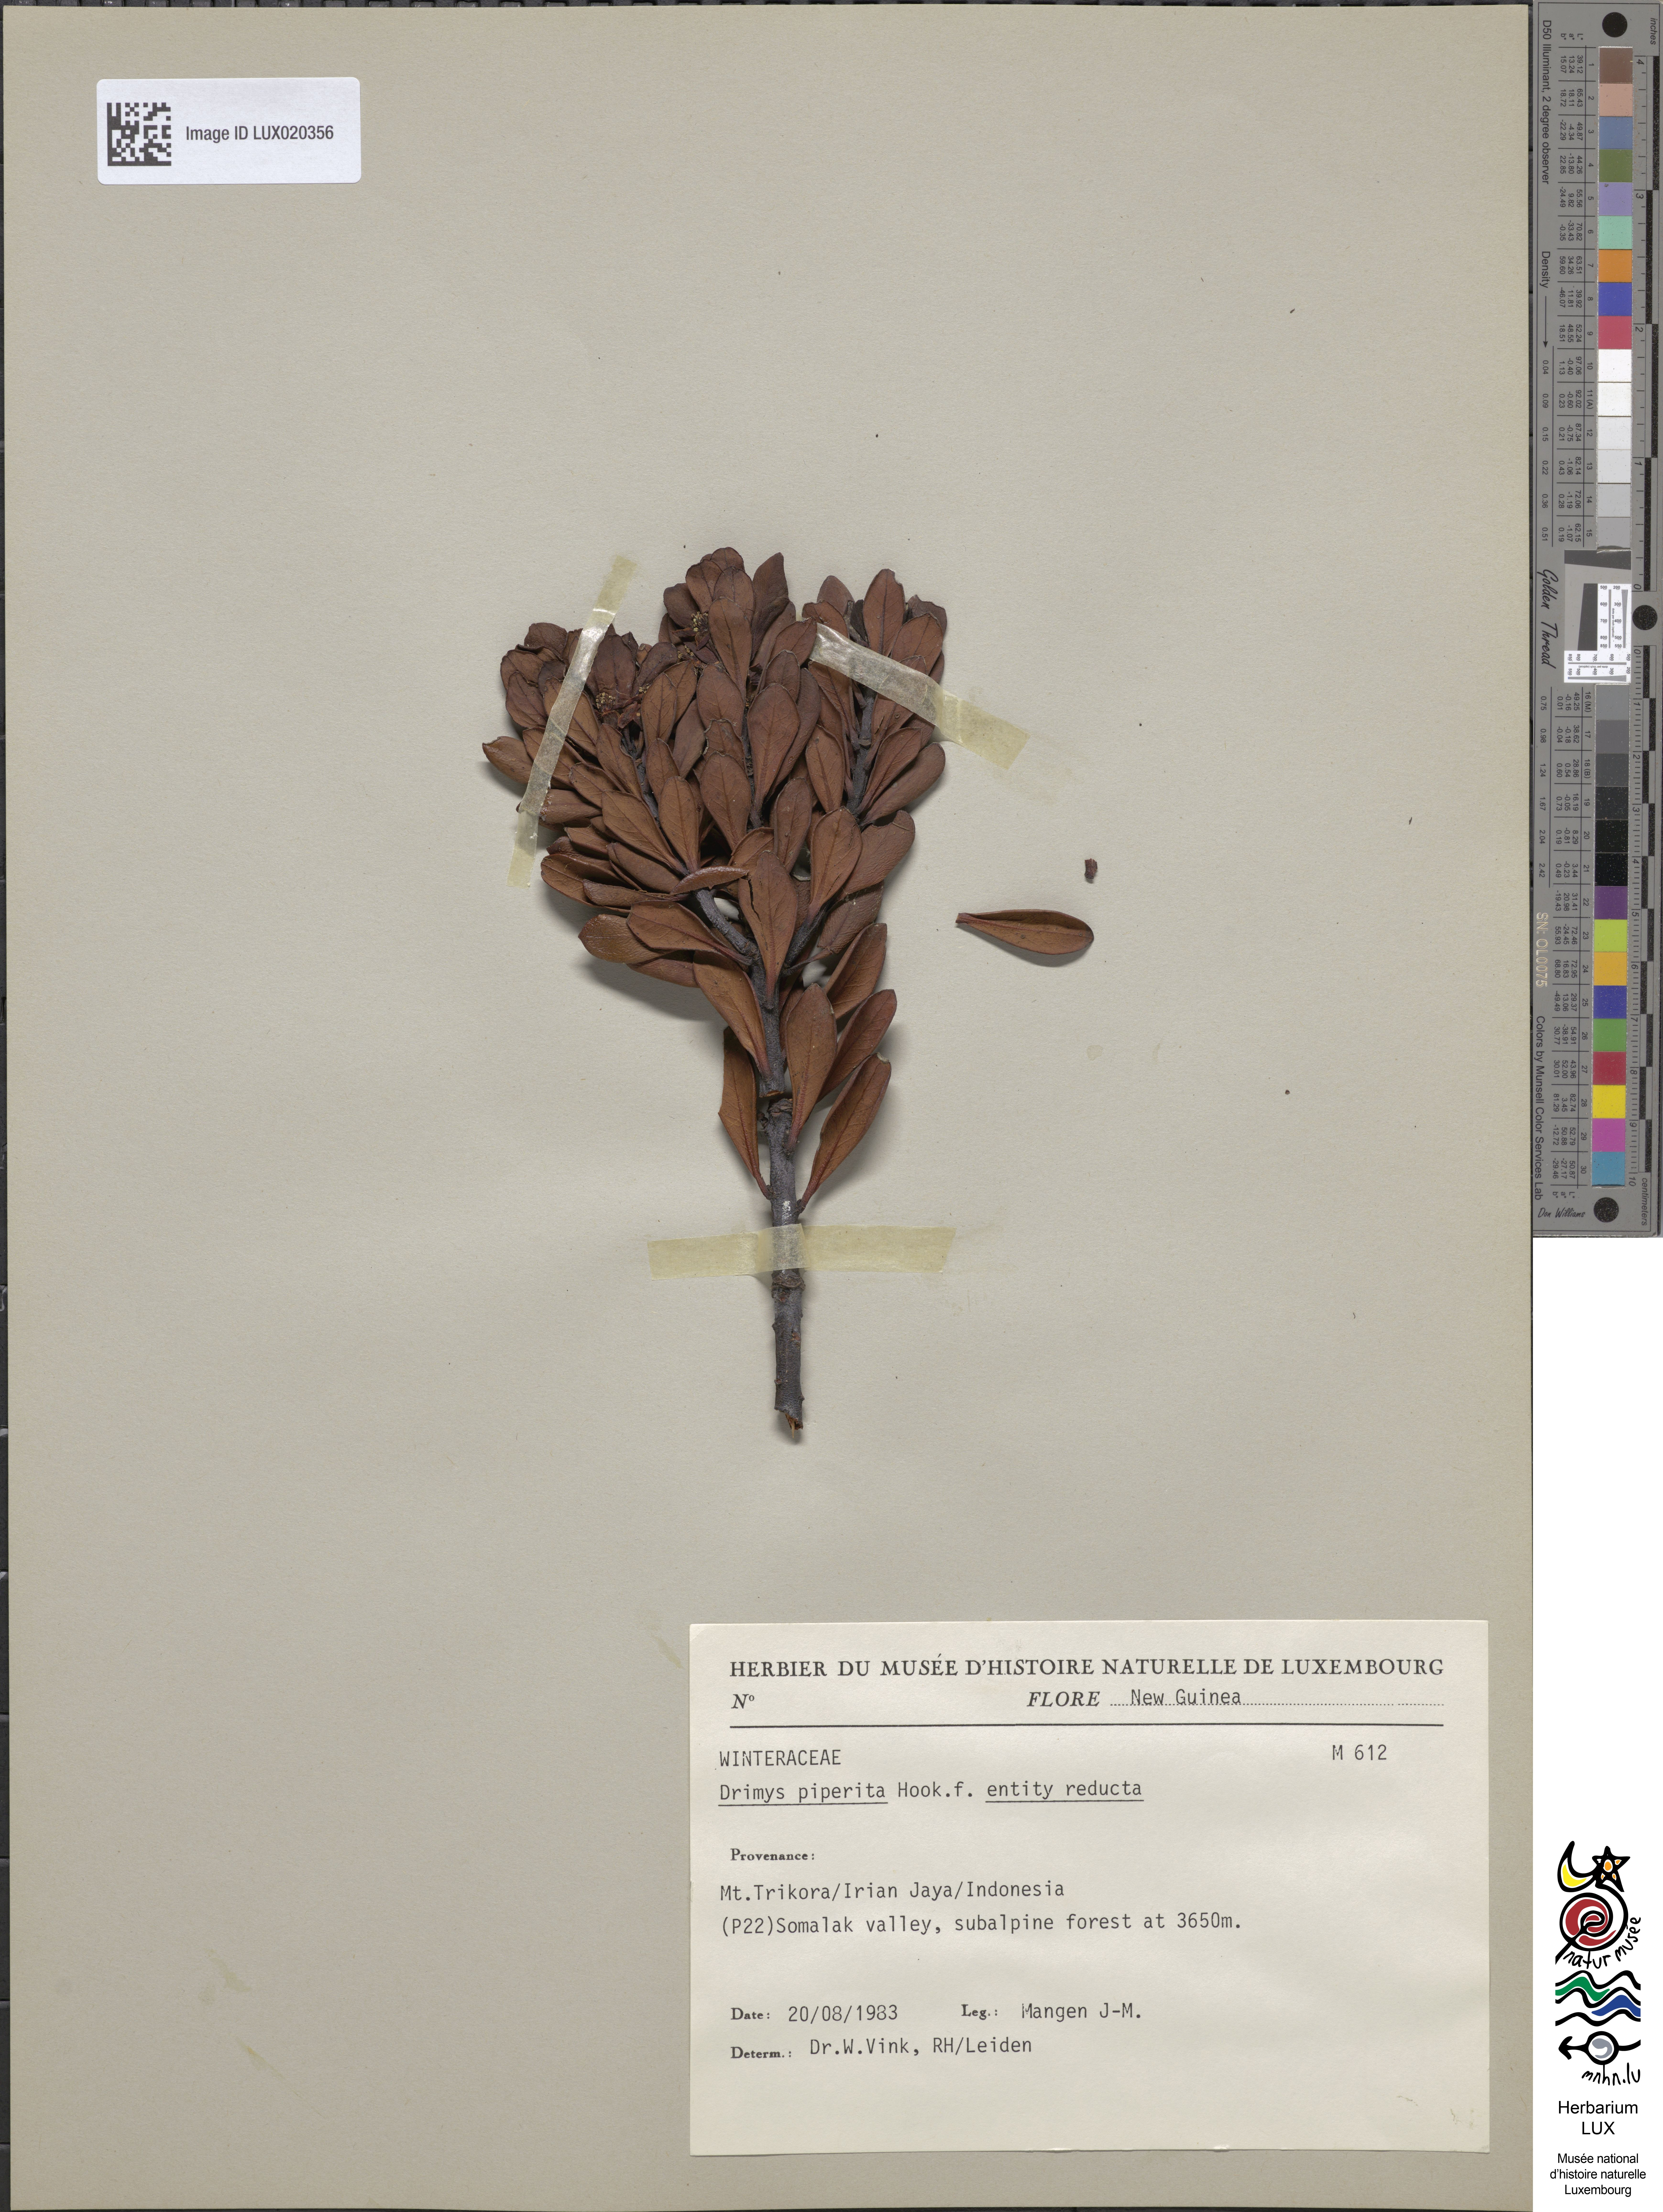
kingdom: Plantae
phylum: Tracheophyta
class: Magnoliopsida
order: Canellales
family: Winteraceae
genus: Drimys
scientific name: Drimys piperita
